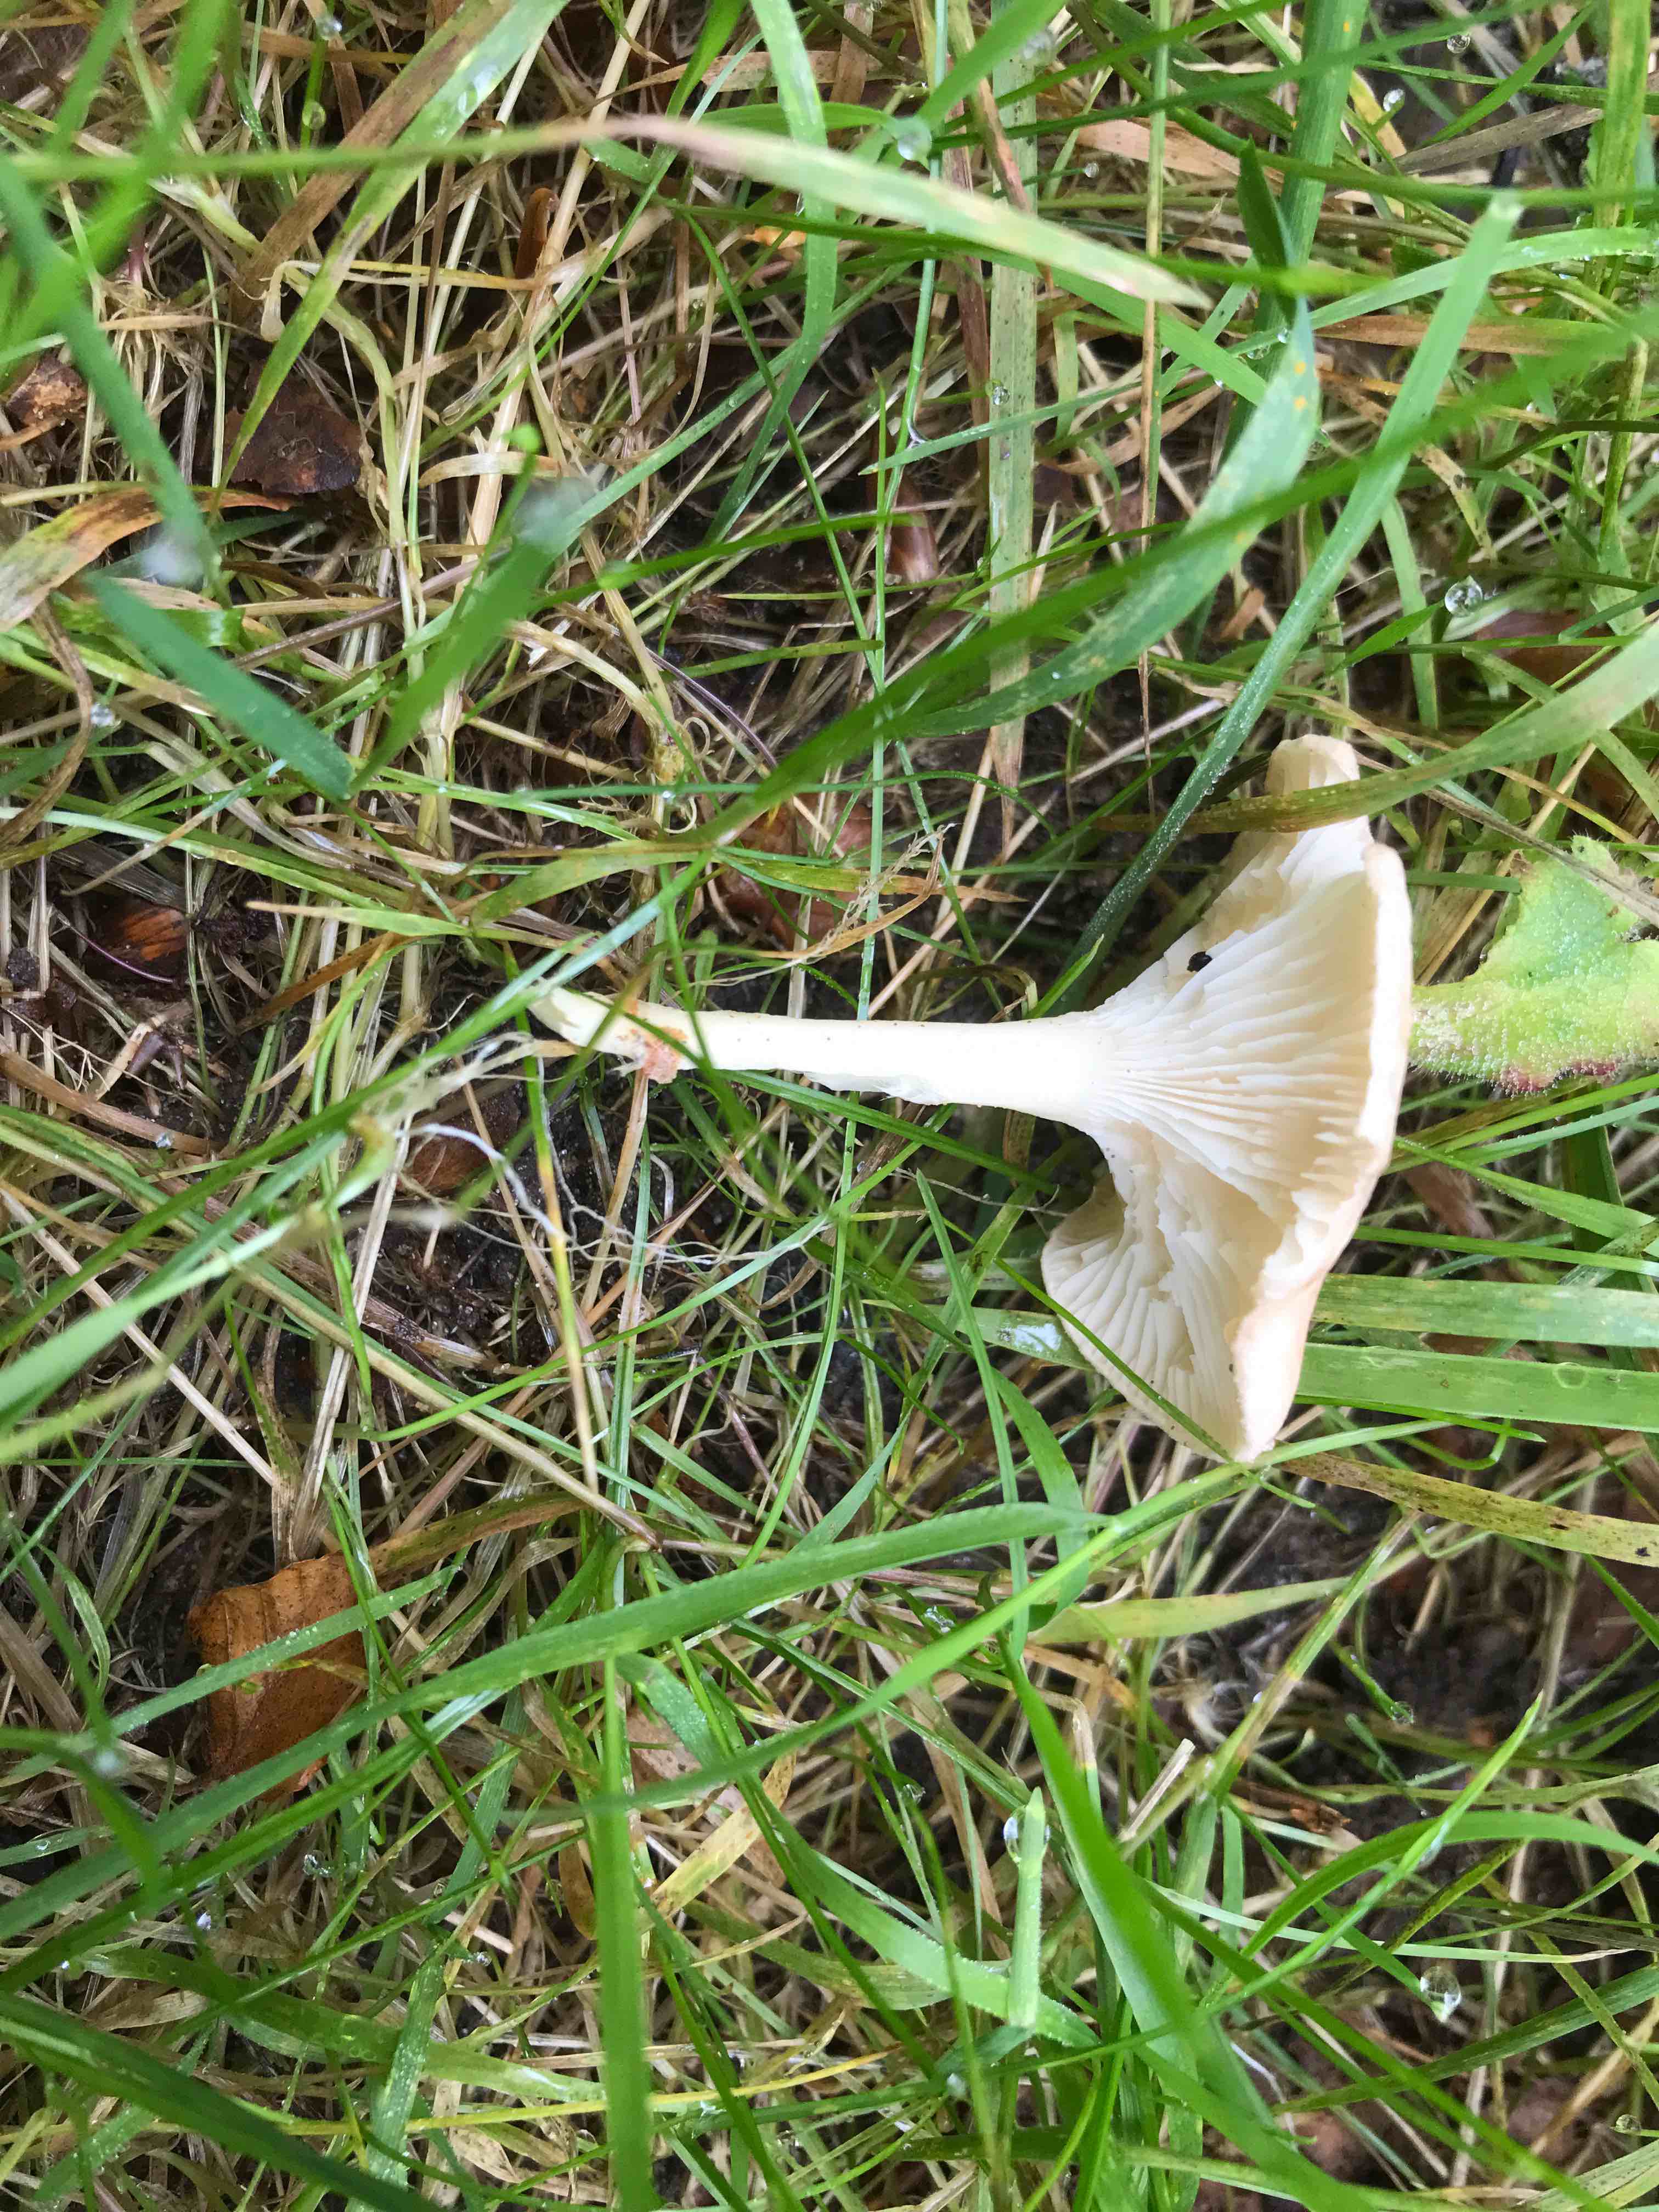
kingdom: Fungi
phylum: Basidiomycota
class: Agaricomycetes
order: Agaricales
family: Tricholomataceae
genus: Infundibulicybe
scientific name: Infundibulicybe gibba
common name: almindelig tragthat
